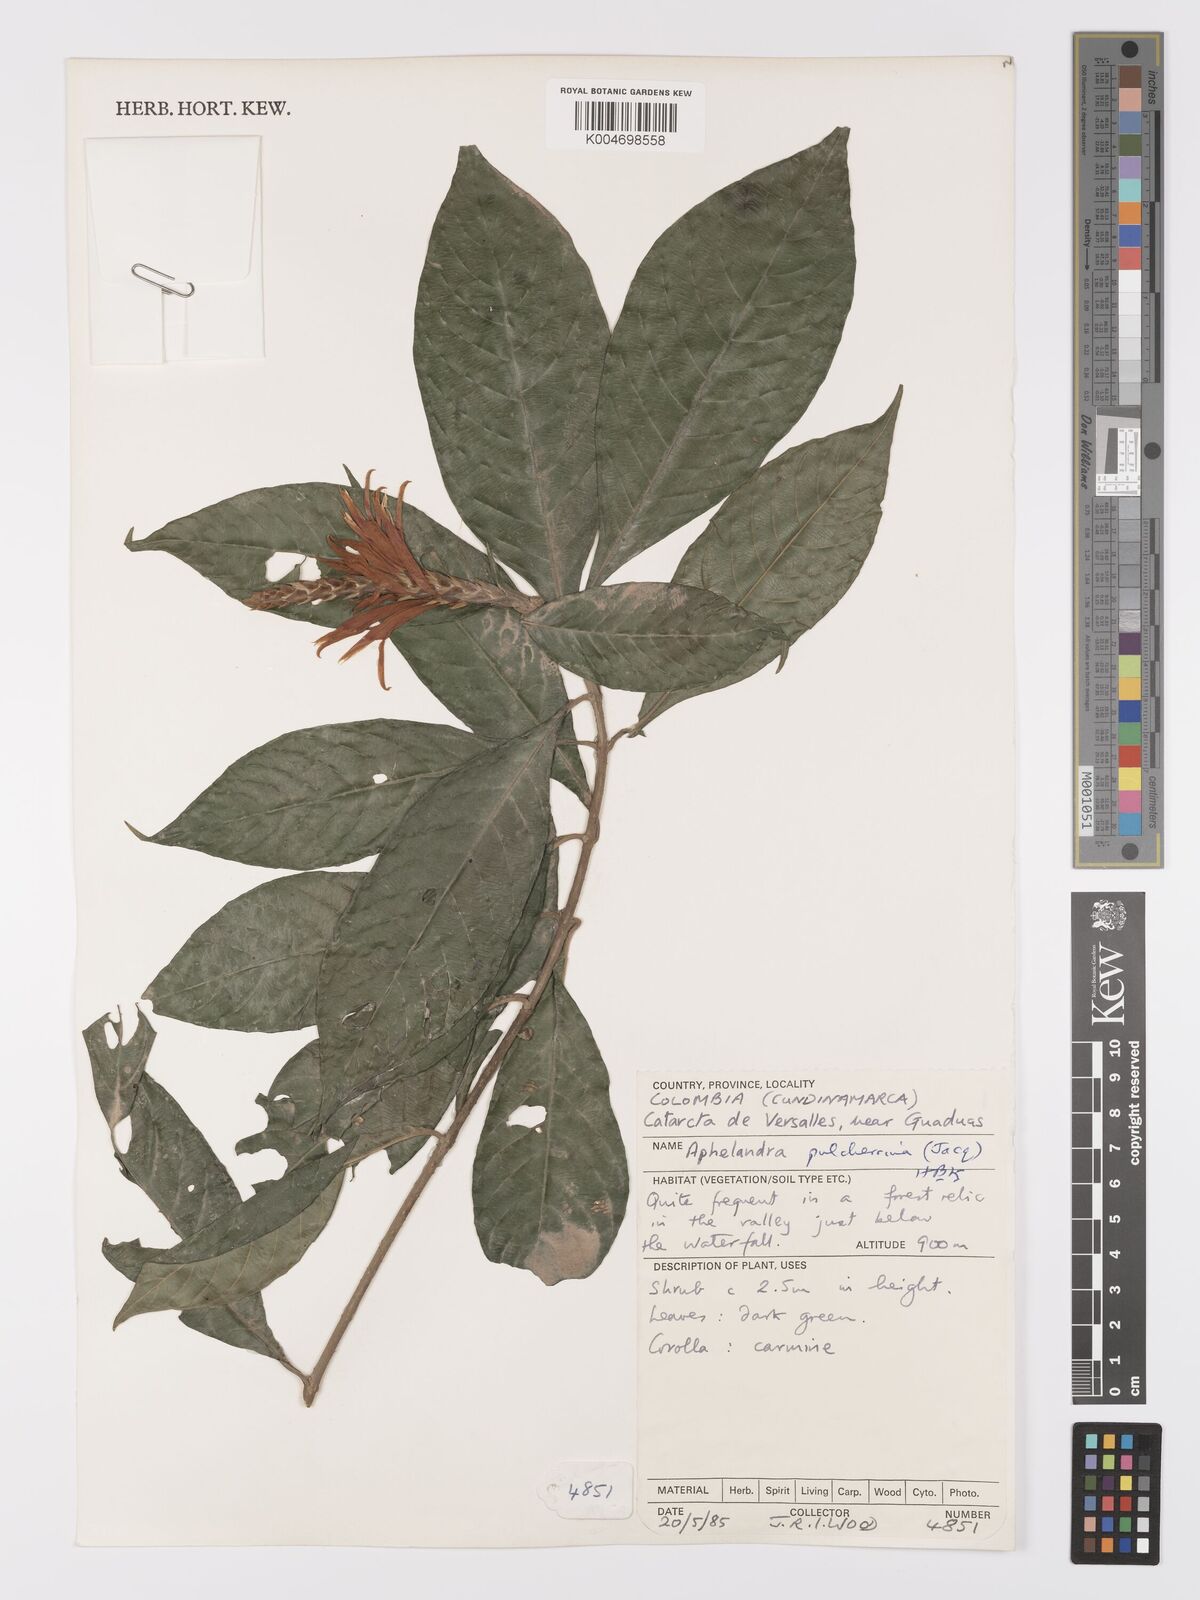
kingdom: Plantae
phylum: Tracheophyta
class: Magnoliopsida
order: Lamiales
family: Acanthaceae
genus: Aphelandra
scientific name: Aphelandra glabrata
